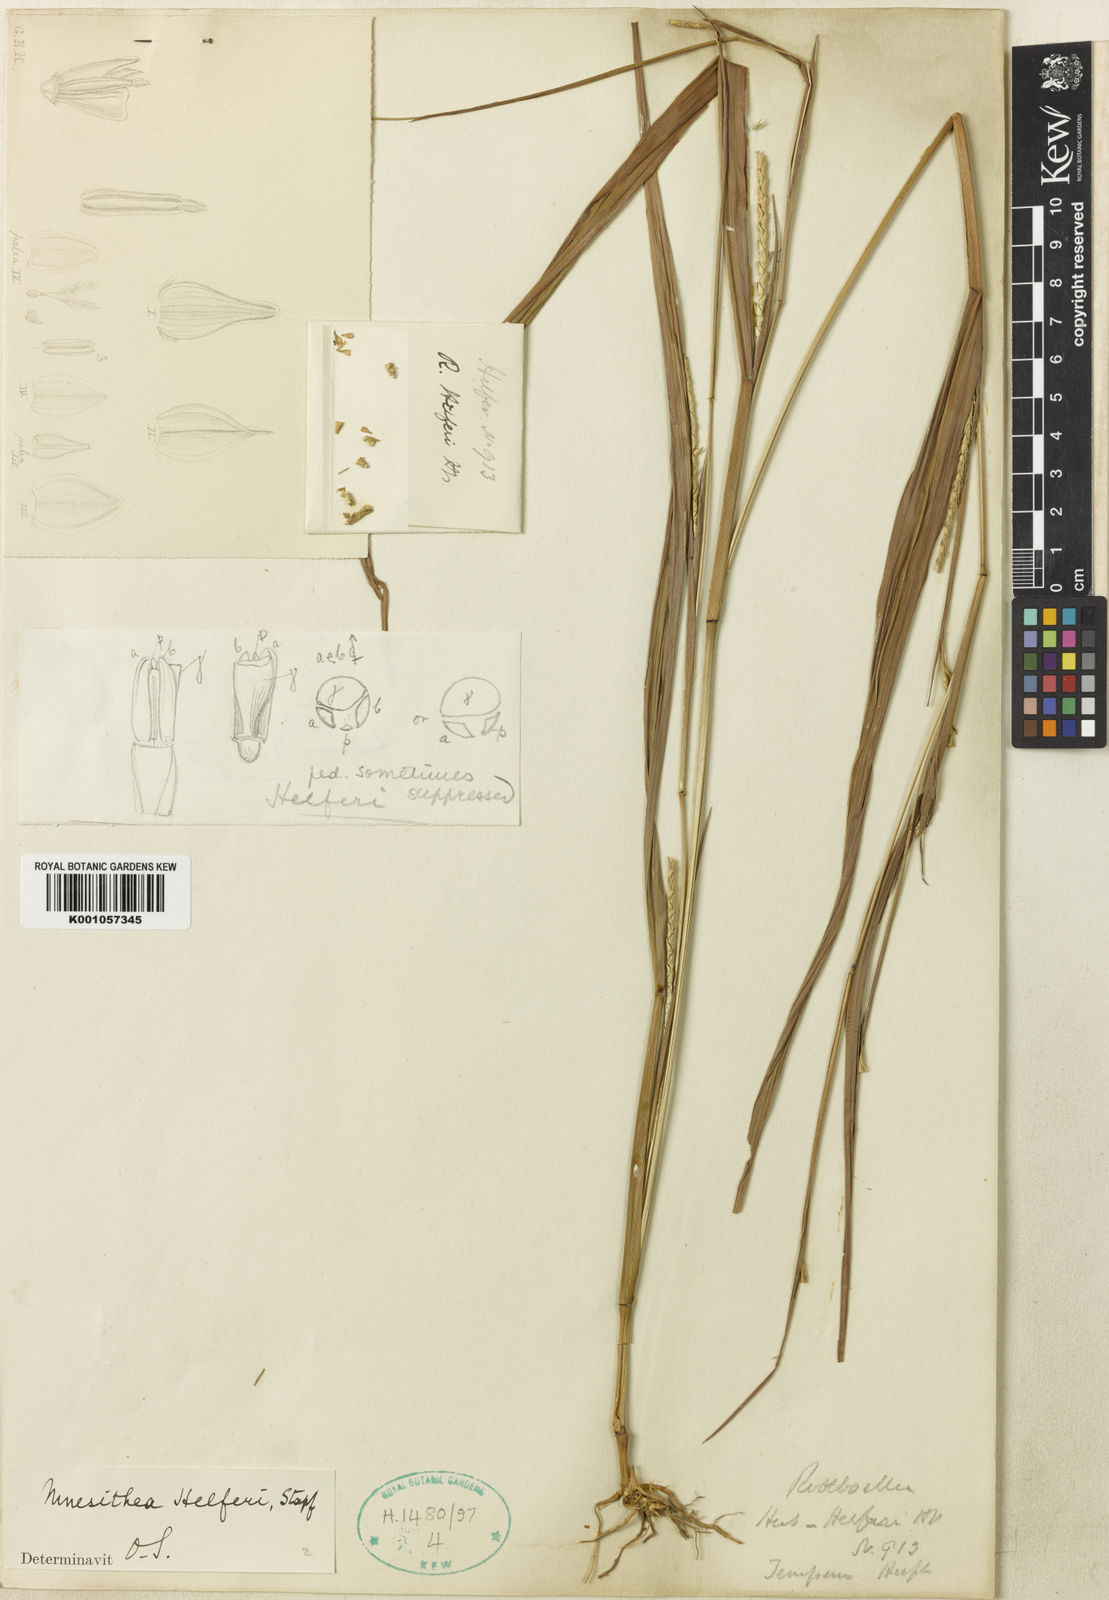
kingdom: Plantae
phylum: Tracheophyta
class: Liliopsida
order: Poales
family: Poaceae
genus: Rottboellia
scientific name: Rottboellia helferi
